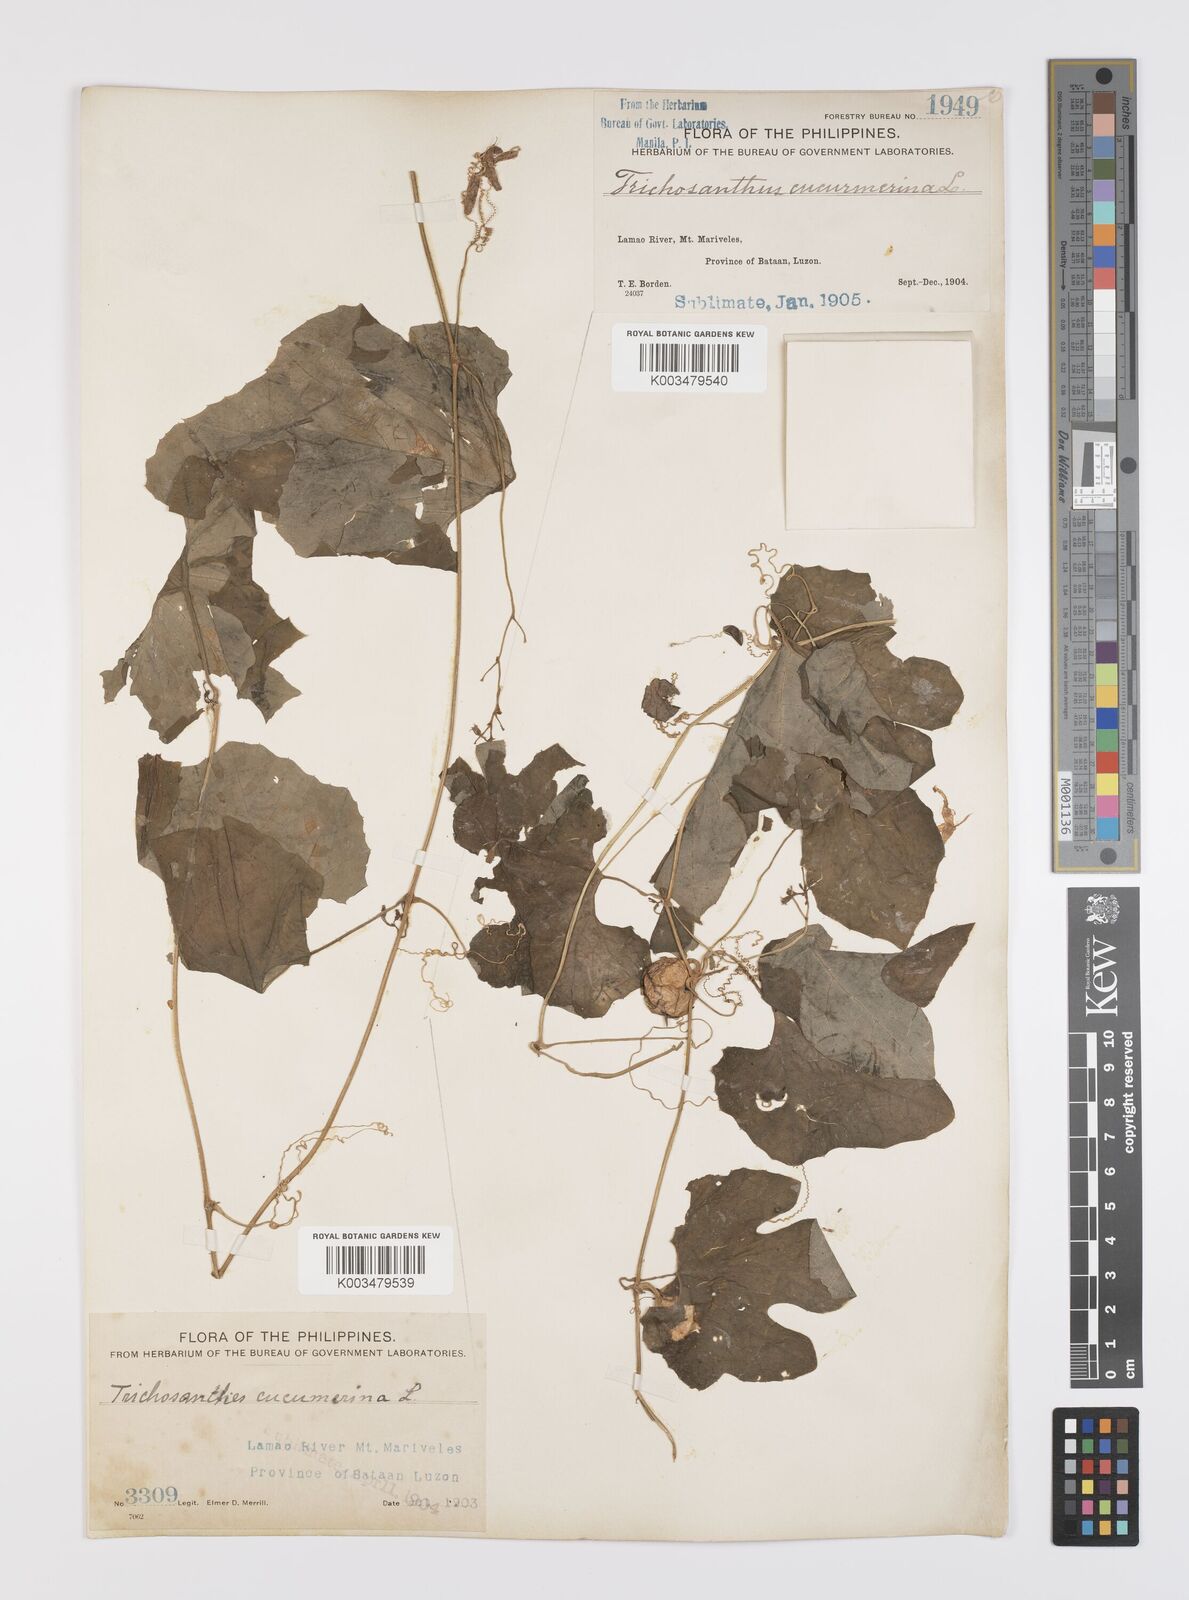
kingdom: Plantae
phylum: Tracheophyta
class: Magnoliopsida
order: Cucurbitales
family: Cucurbitaceae
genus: Trichosanthes
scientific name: Trichosanthes cucumerina
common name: Snakegourd
